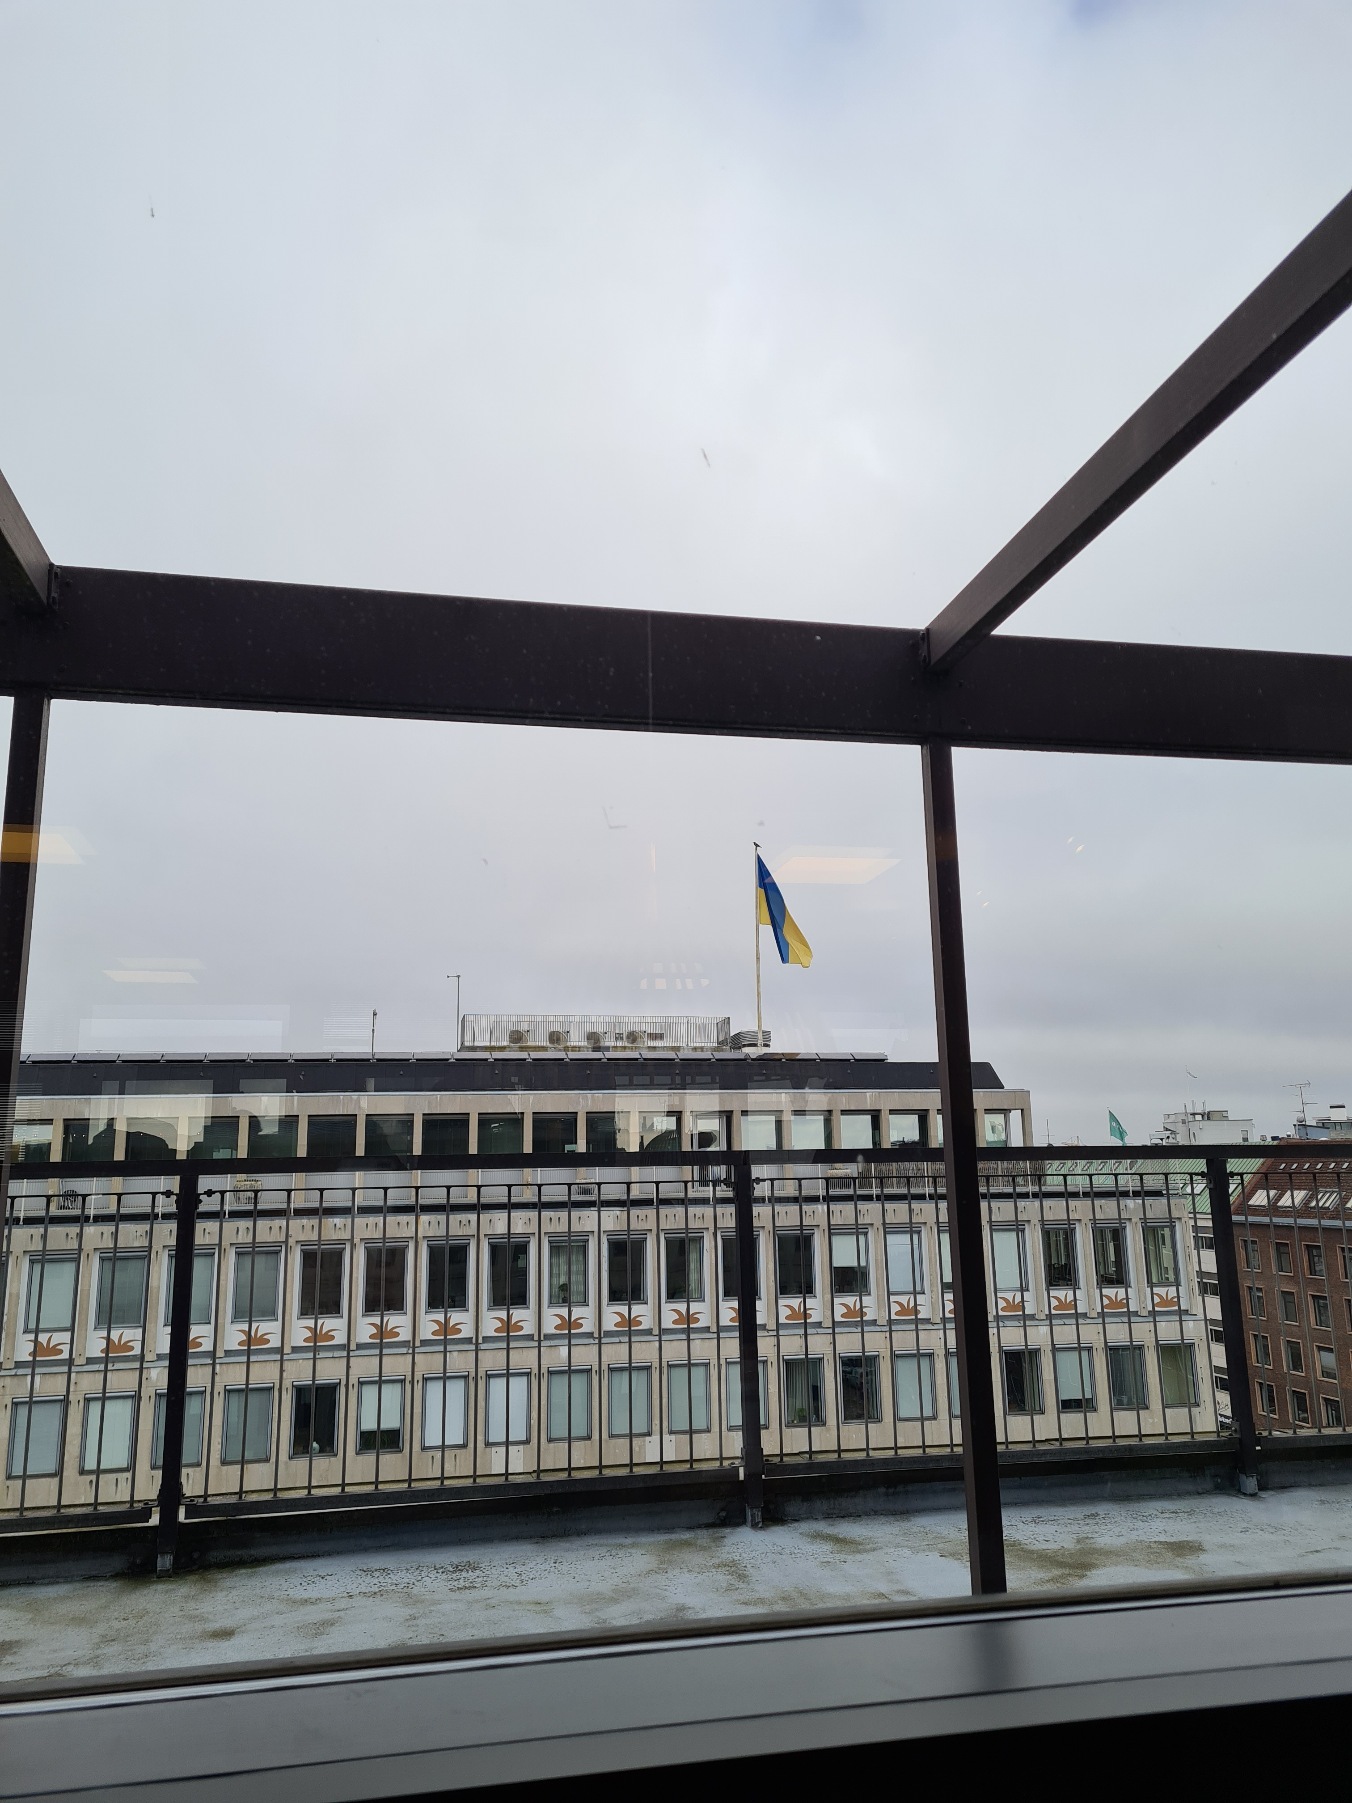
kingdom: Animalia
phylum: Chordata
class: Aves
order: Passeriformes
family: Corvidae
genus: Corvus
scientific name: Corvus cornix
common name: Gråkrage
